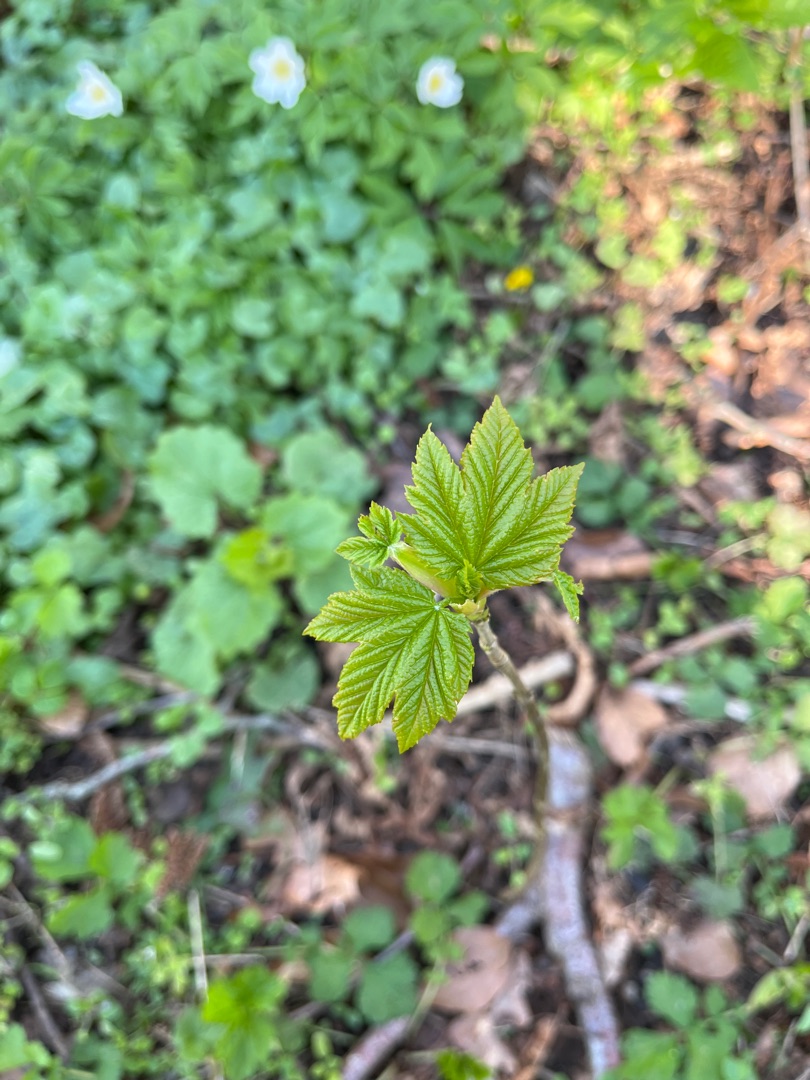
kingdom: Plantae
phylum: Tracheophyta
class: Magnoliopsida
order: Sapindales
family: Sapindaceae
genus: Acer
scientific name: Acer pseudoplatanus
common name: Ahorn
